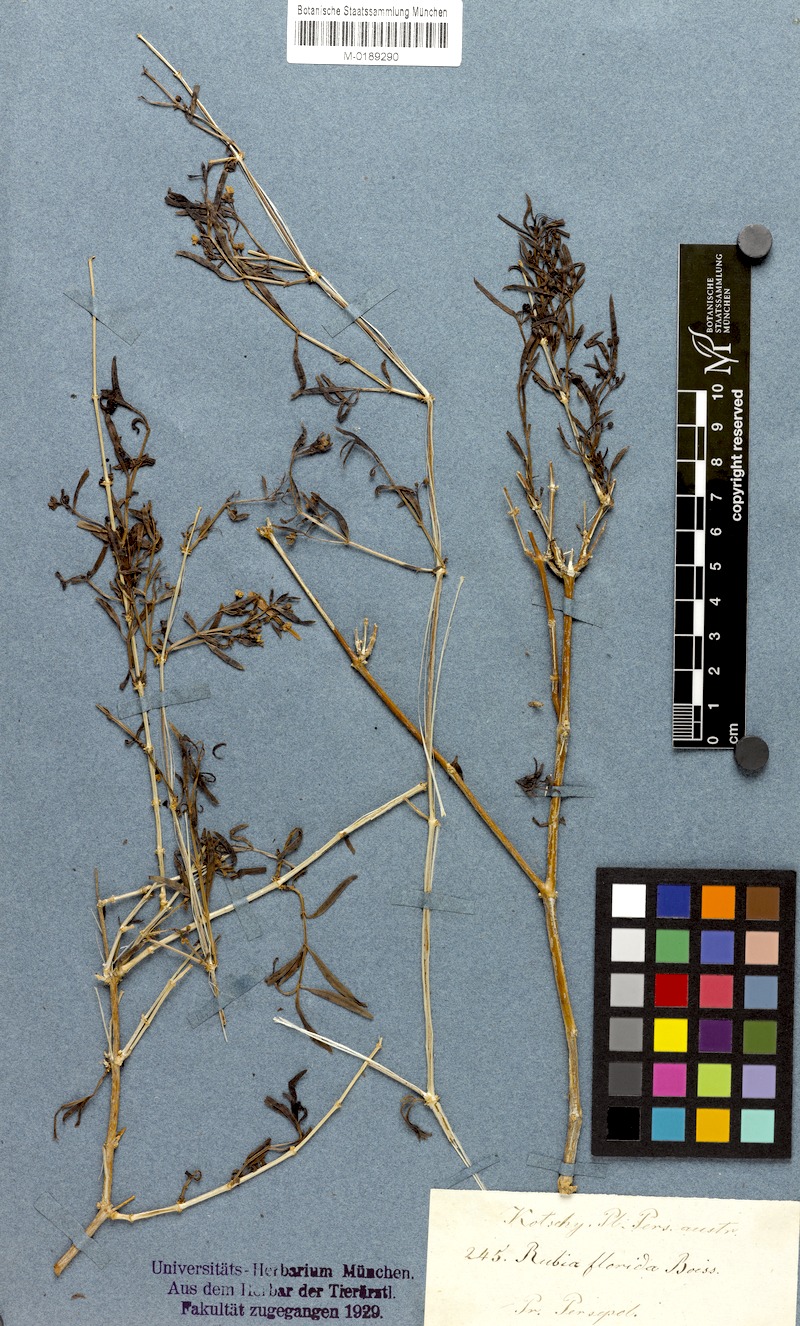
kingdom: Plantae
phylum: Tracheophyta
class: Magnoliopsida
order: Gentianales
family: Rubiaceae
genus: Rubia
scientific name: Rubia florida
